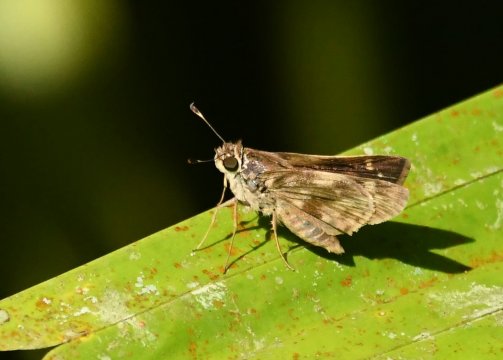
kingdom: Animalia
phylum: Arthropoda
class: Insecta
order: Lepidoptera
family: Hesperiidae
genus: Pompeius
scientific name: Pompeius pompeius
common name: Pompeius Skipper
